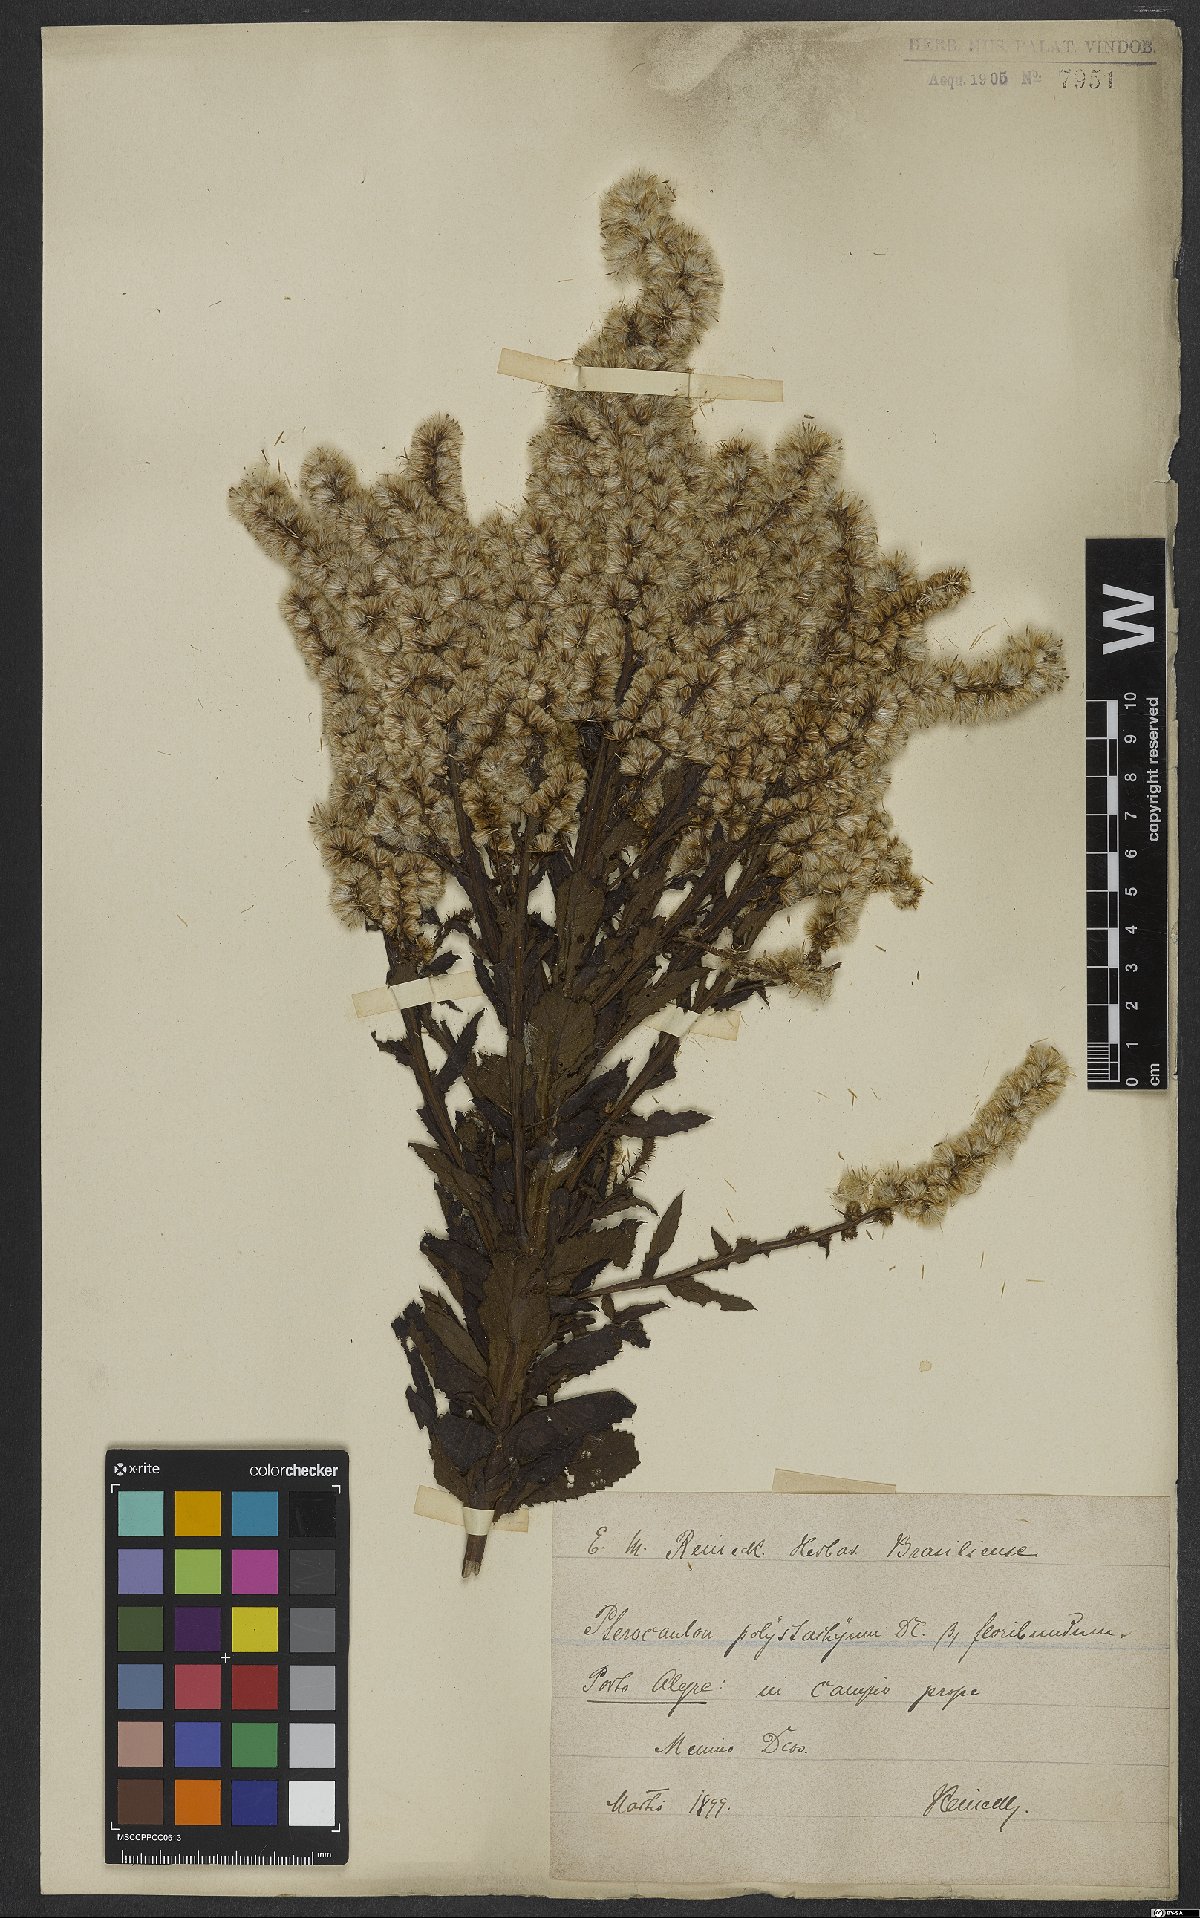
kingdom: Plantae
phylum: Tracheophyta
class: Magnoliopsida
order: Asterales
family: Asteraceae
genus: Pterocaulon
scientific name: Pterocaulon polystachyum
